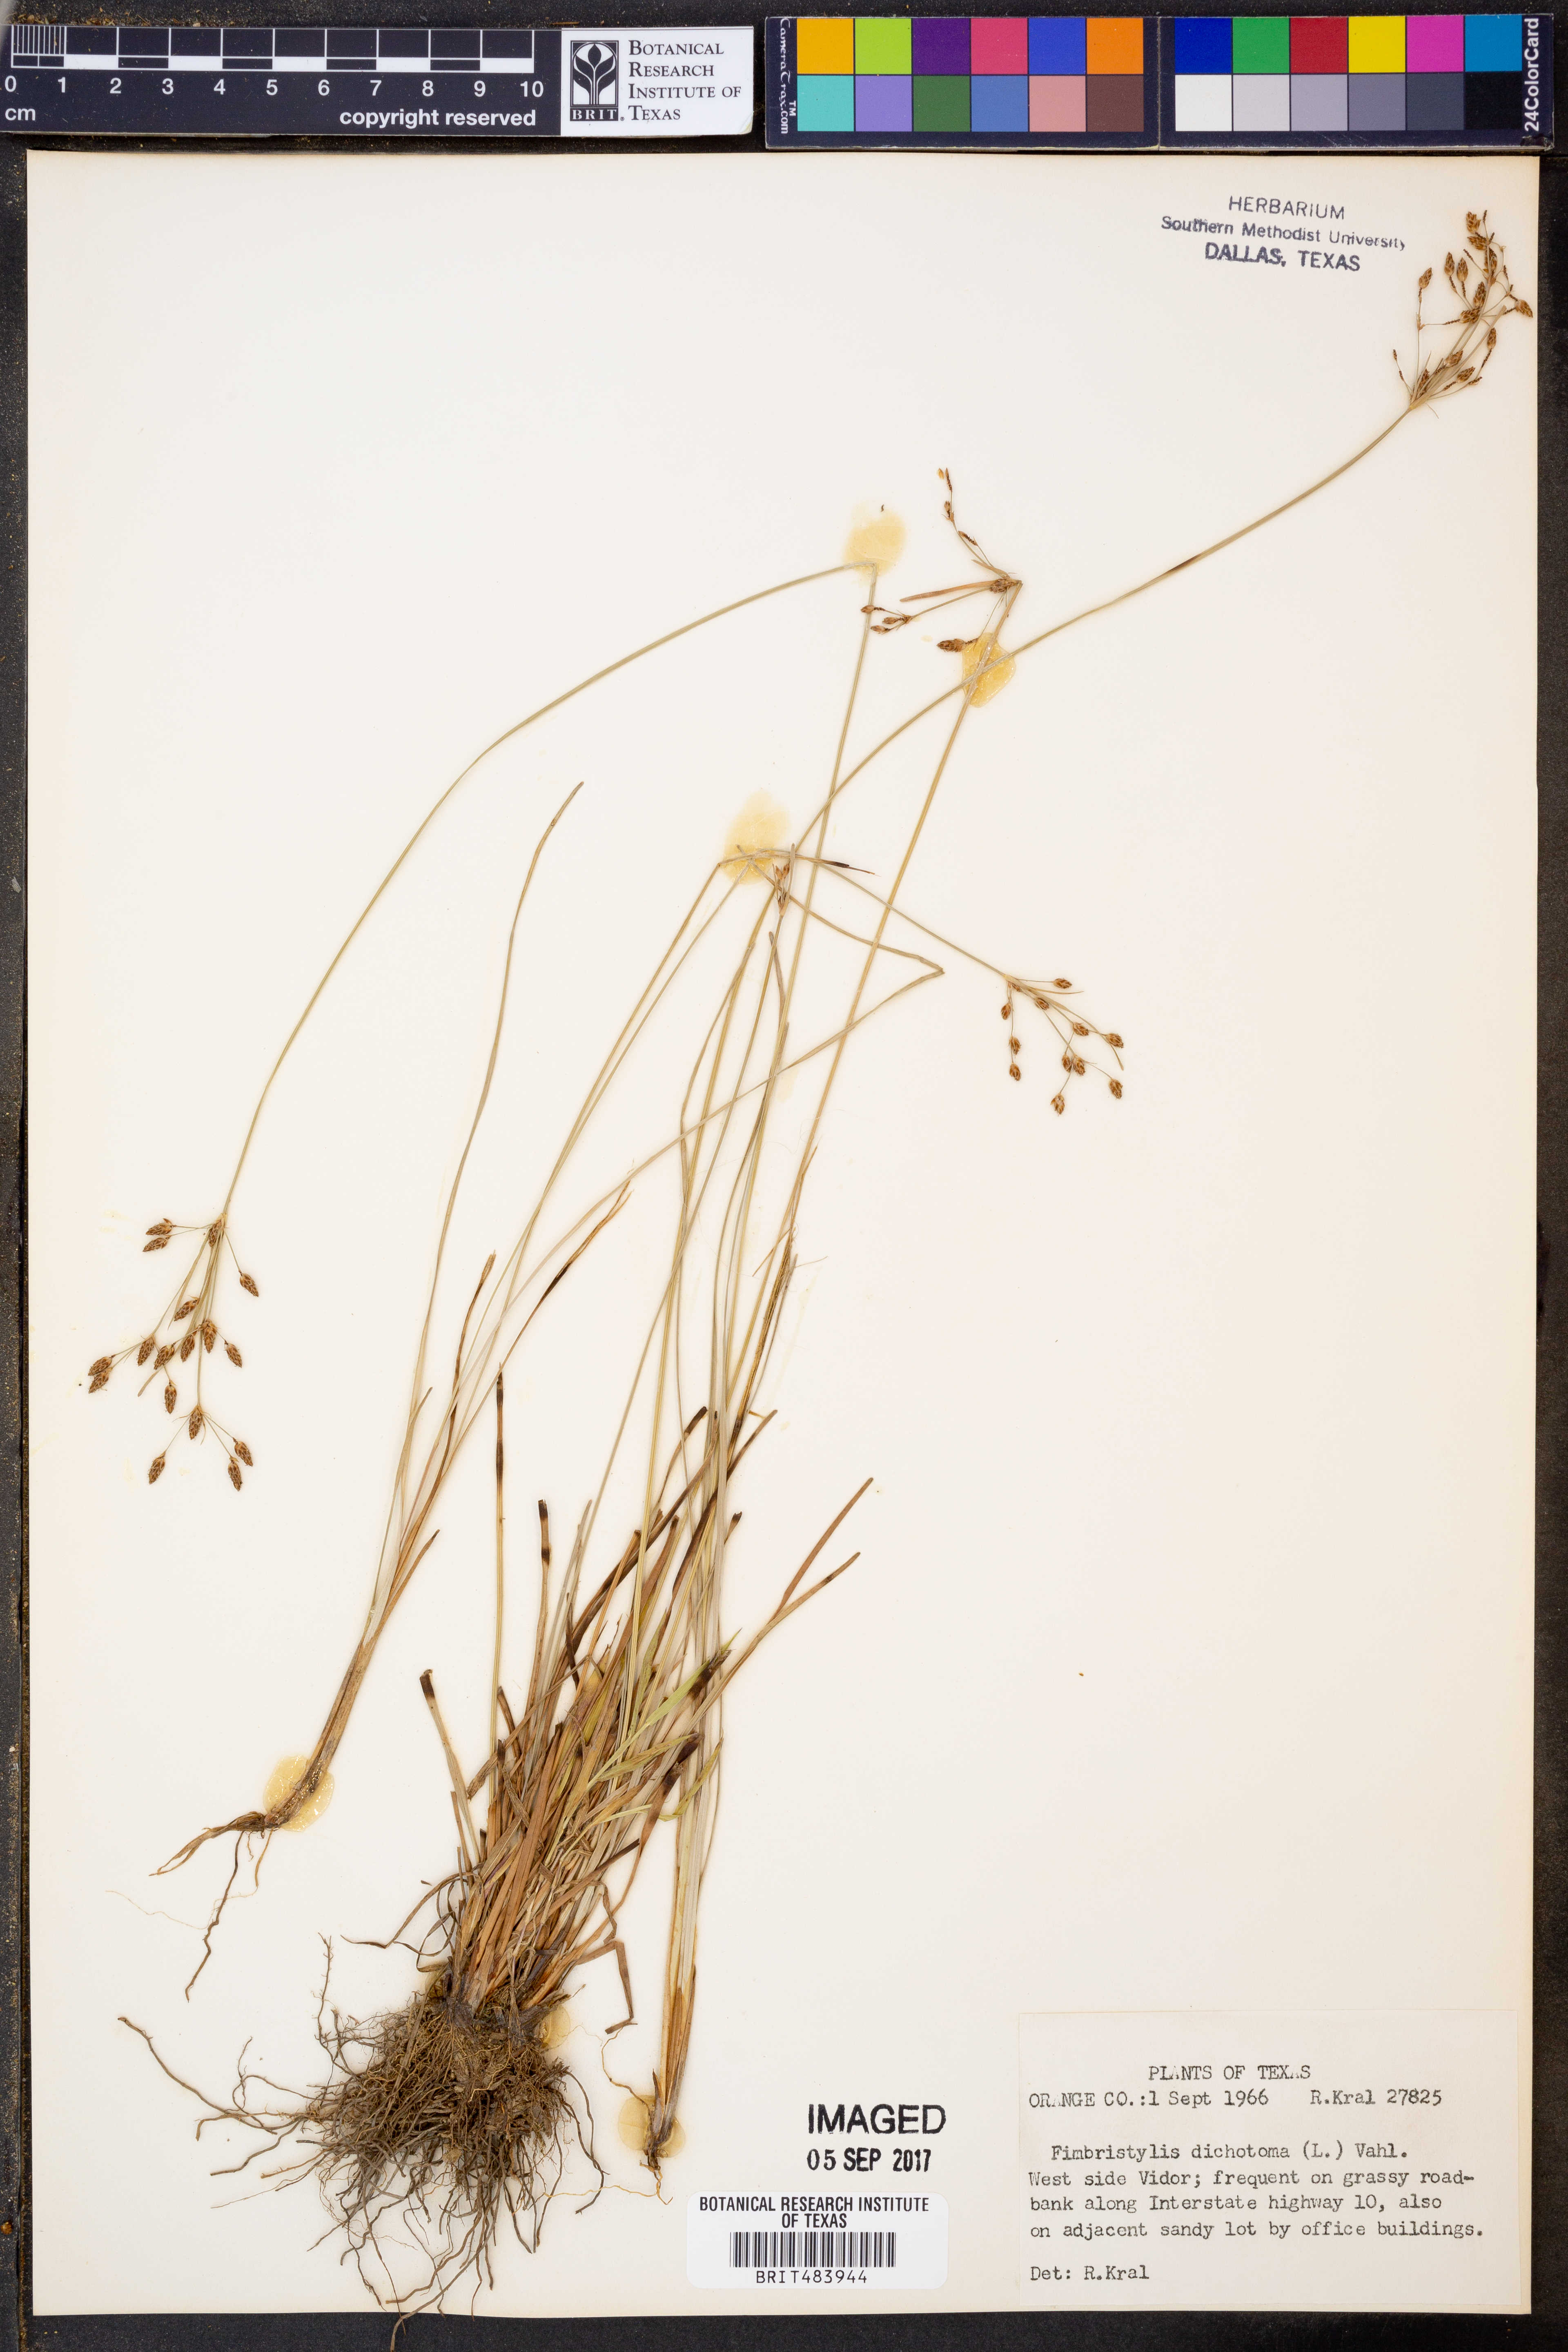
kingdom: Plantae
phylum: Tracheophyta
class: Liliopsida
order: Poales
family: Cyperaceae
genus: Fimbristylis
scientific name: Fimbristylis dichotoma
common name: Forked fimbry
